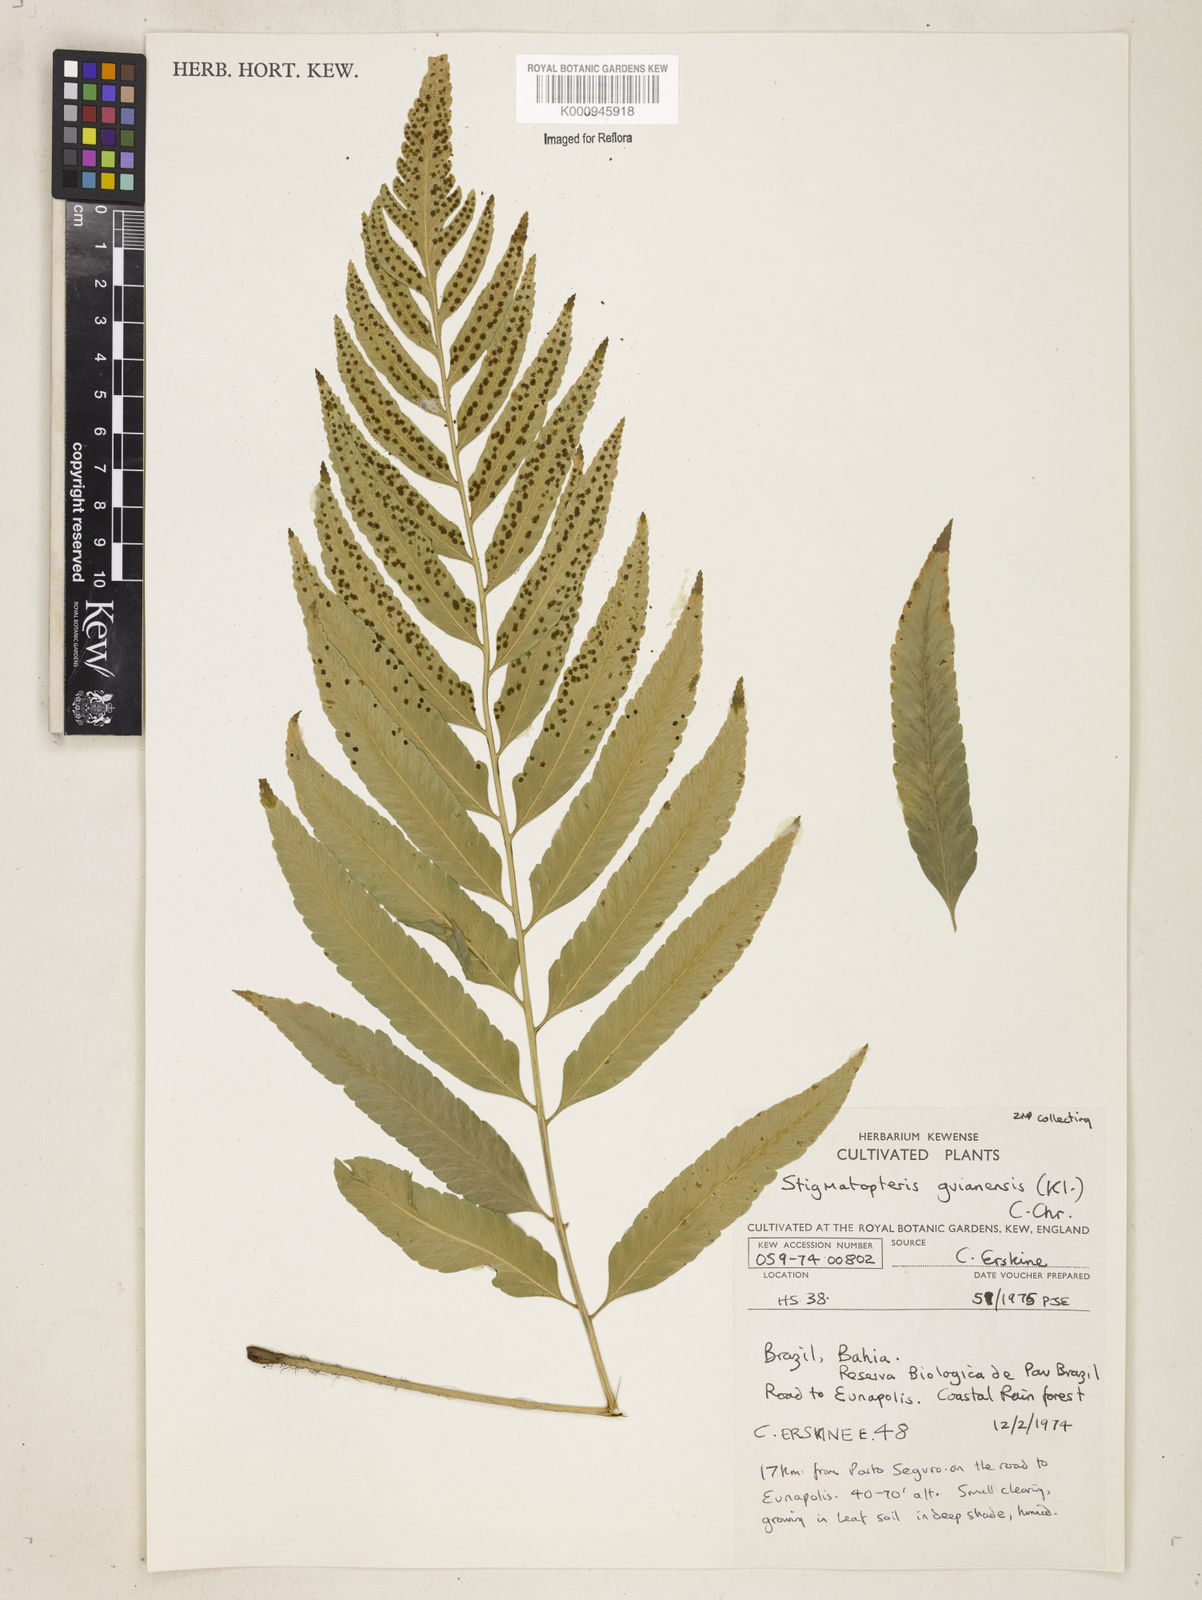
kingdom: Plantae
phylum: Tracheophyta
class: Polypodiopsida
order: Polypodiales
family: Dryopteridaceae
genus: Cyclodium
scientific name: Cyclodium
